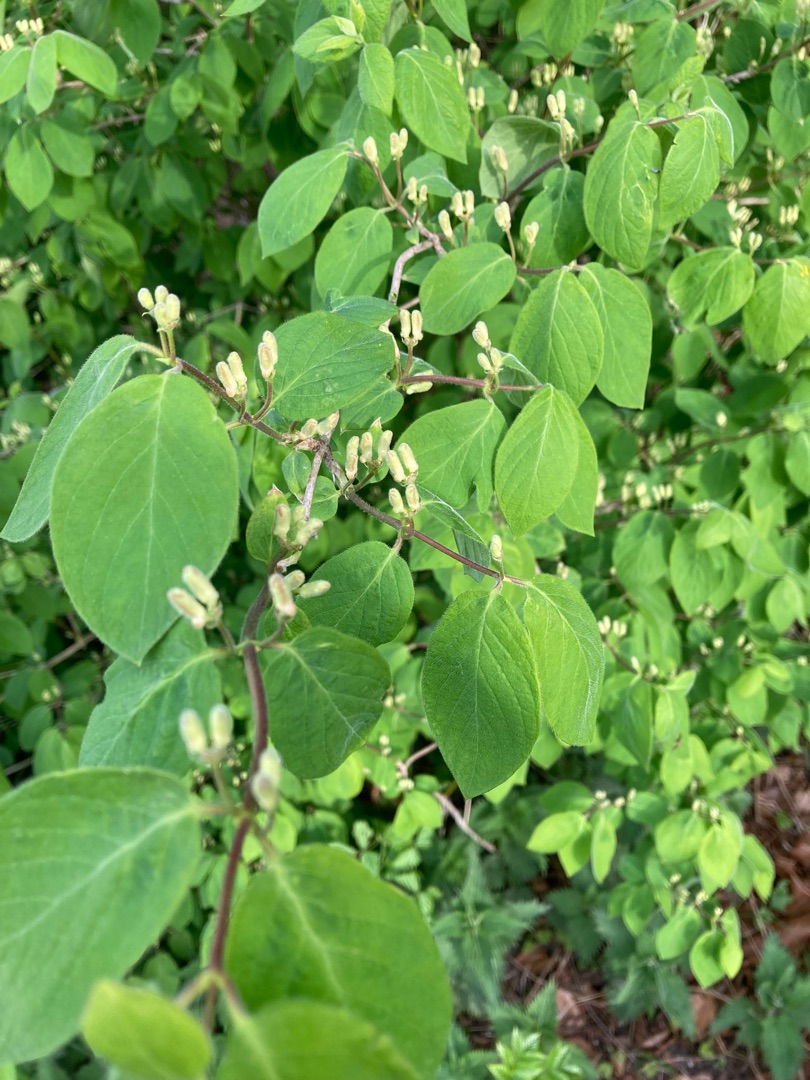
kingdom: Plantae
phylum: Tracheophyta
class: Magnoliopsida
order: Dipsacales
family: Caprifoliaceae
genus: Lonicera
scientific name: Lonicera xylosteum
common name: Dunet gedeblad
